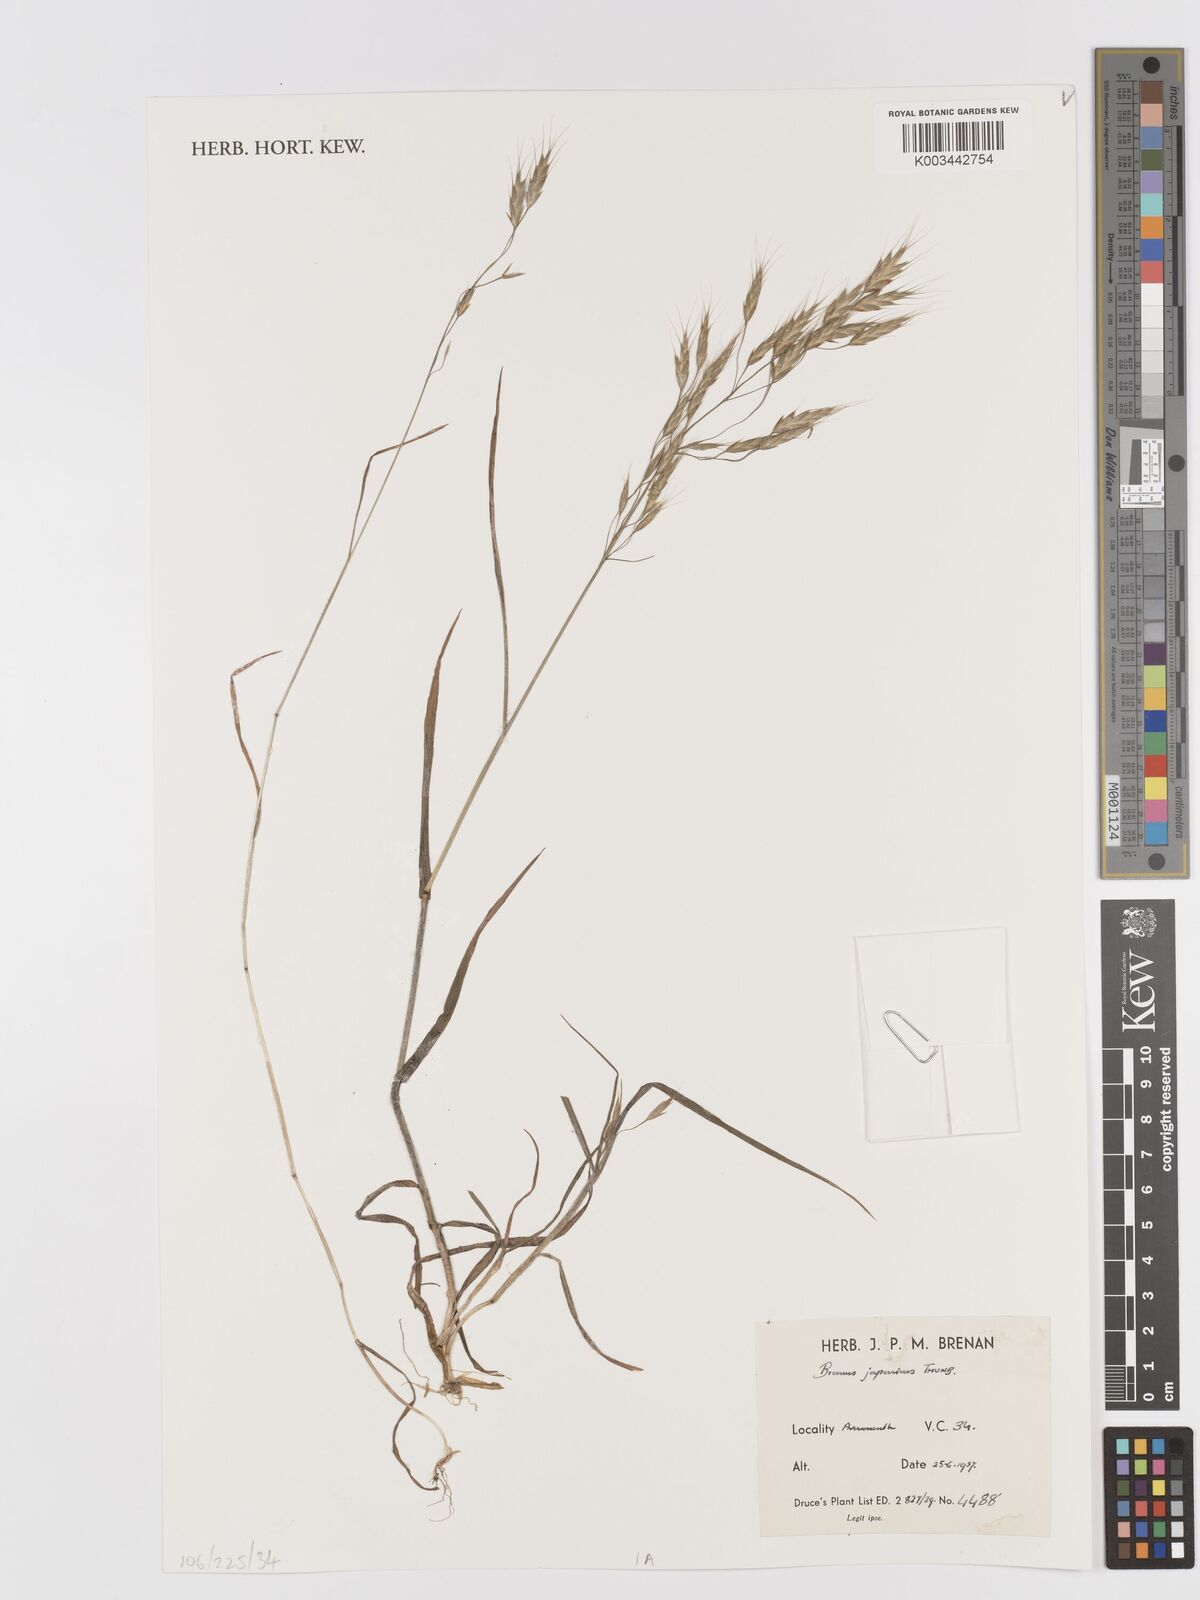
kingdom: Plantae
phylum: Tracheophyta
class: Liliopsida
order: Poales
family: Poaceae
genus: Bromus
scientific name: Bromus japonicus
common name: Japanese brome
